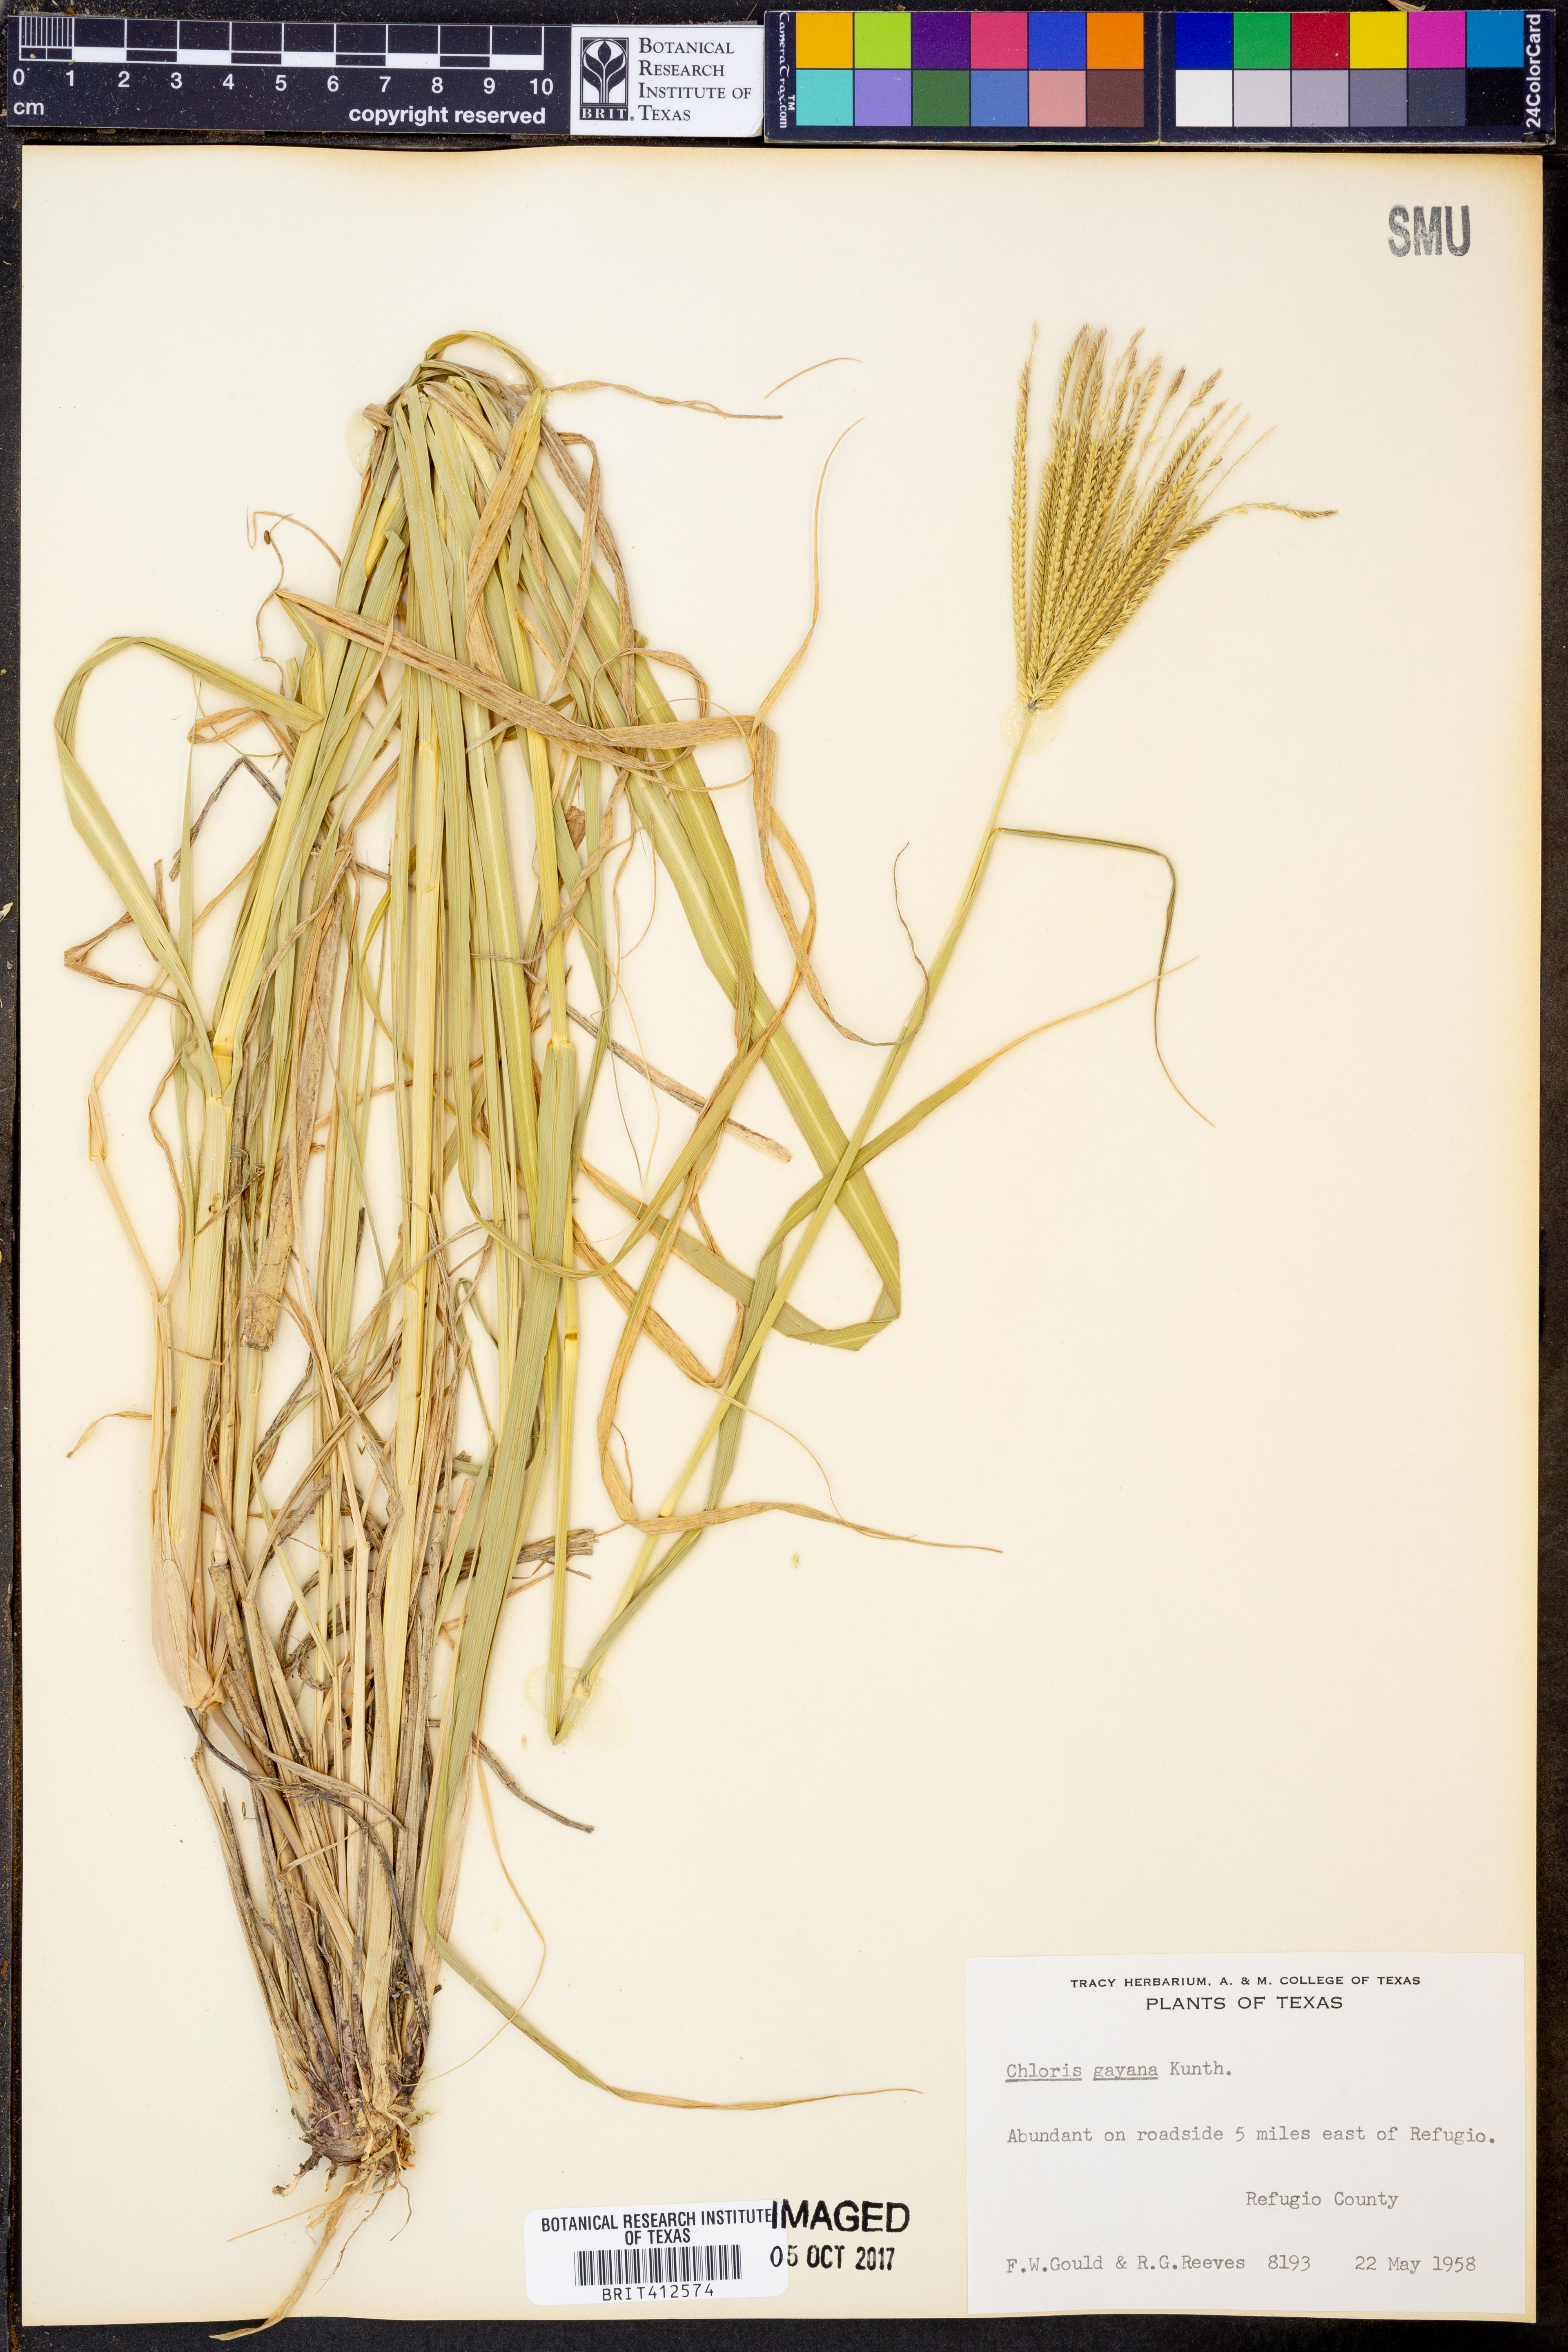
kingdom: Plantae
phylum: Tracheophyta
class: Liliopsida
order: Poales
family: Poaceae
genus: Chloris
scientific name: Chloris gayana
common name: Rhodes grass
